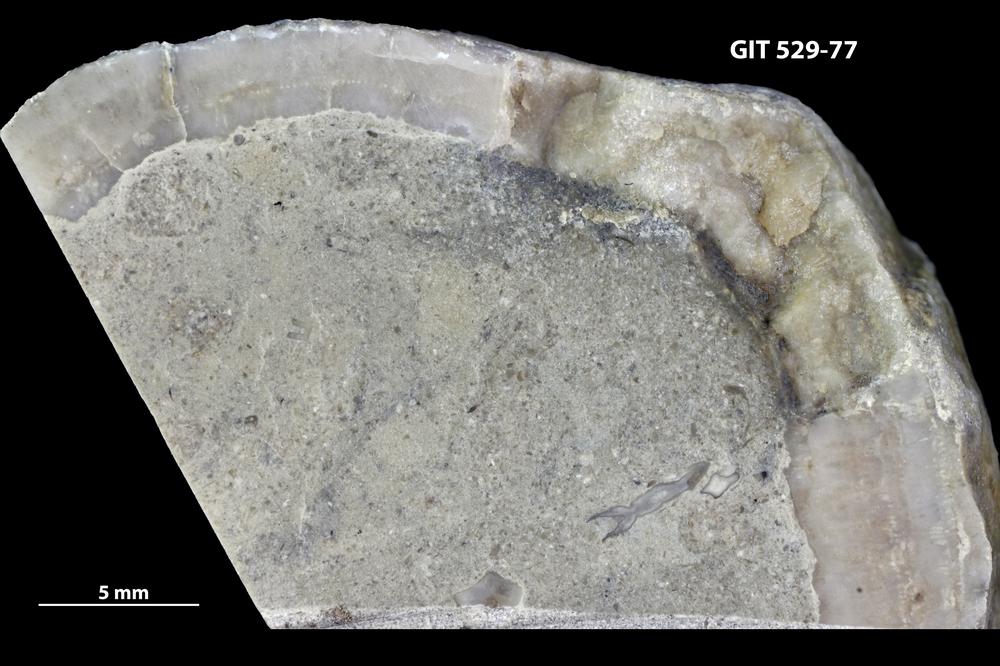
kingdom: Animalia
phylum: Cnidaria
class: Anthozoa
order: Heliolitina
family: Proheliolitidae
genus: Proheliolites
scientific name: Proheliolites
